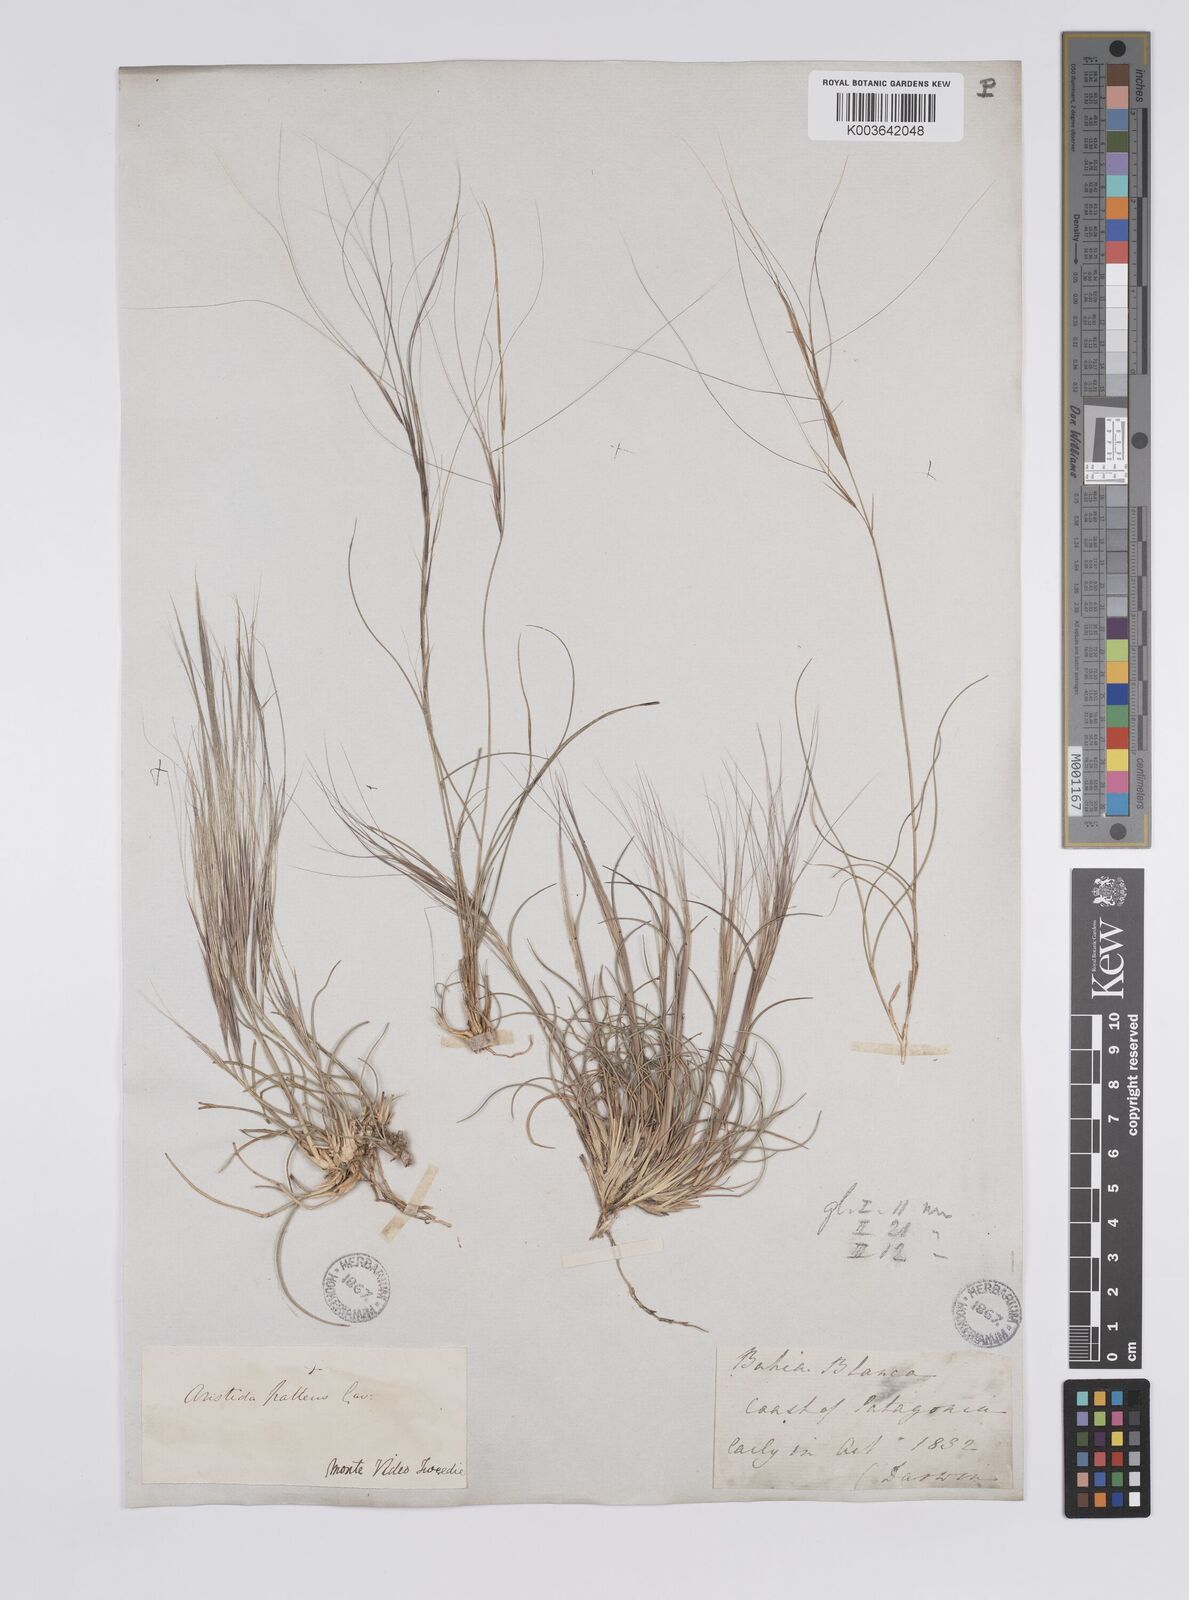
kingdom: Plantae
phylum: Tracheophyta
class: Liliopsida
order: Poales
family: Poaceae
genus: Aristida
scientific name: Aristida pallens
